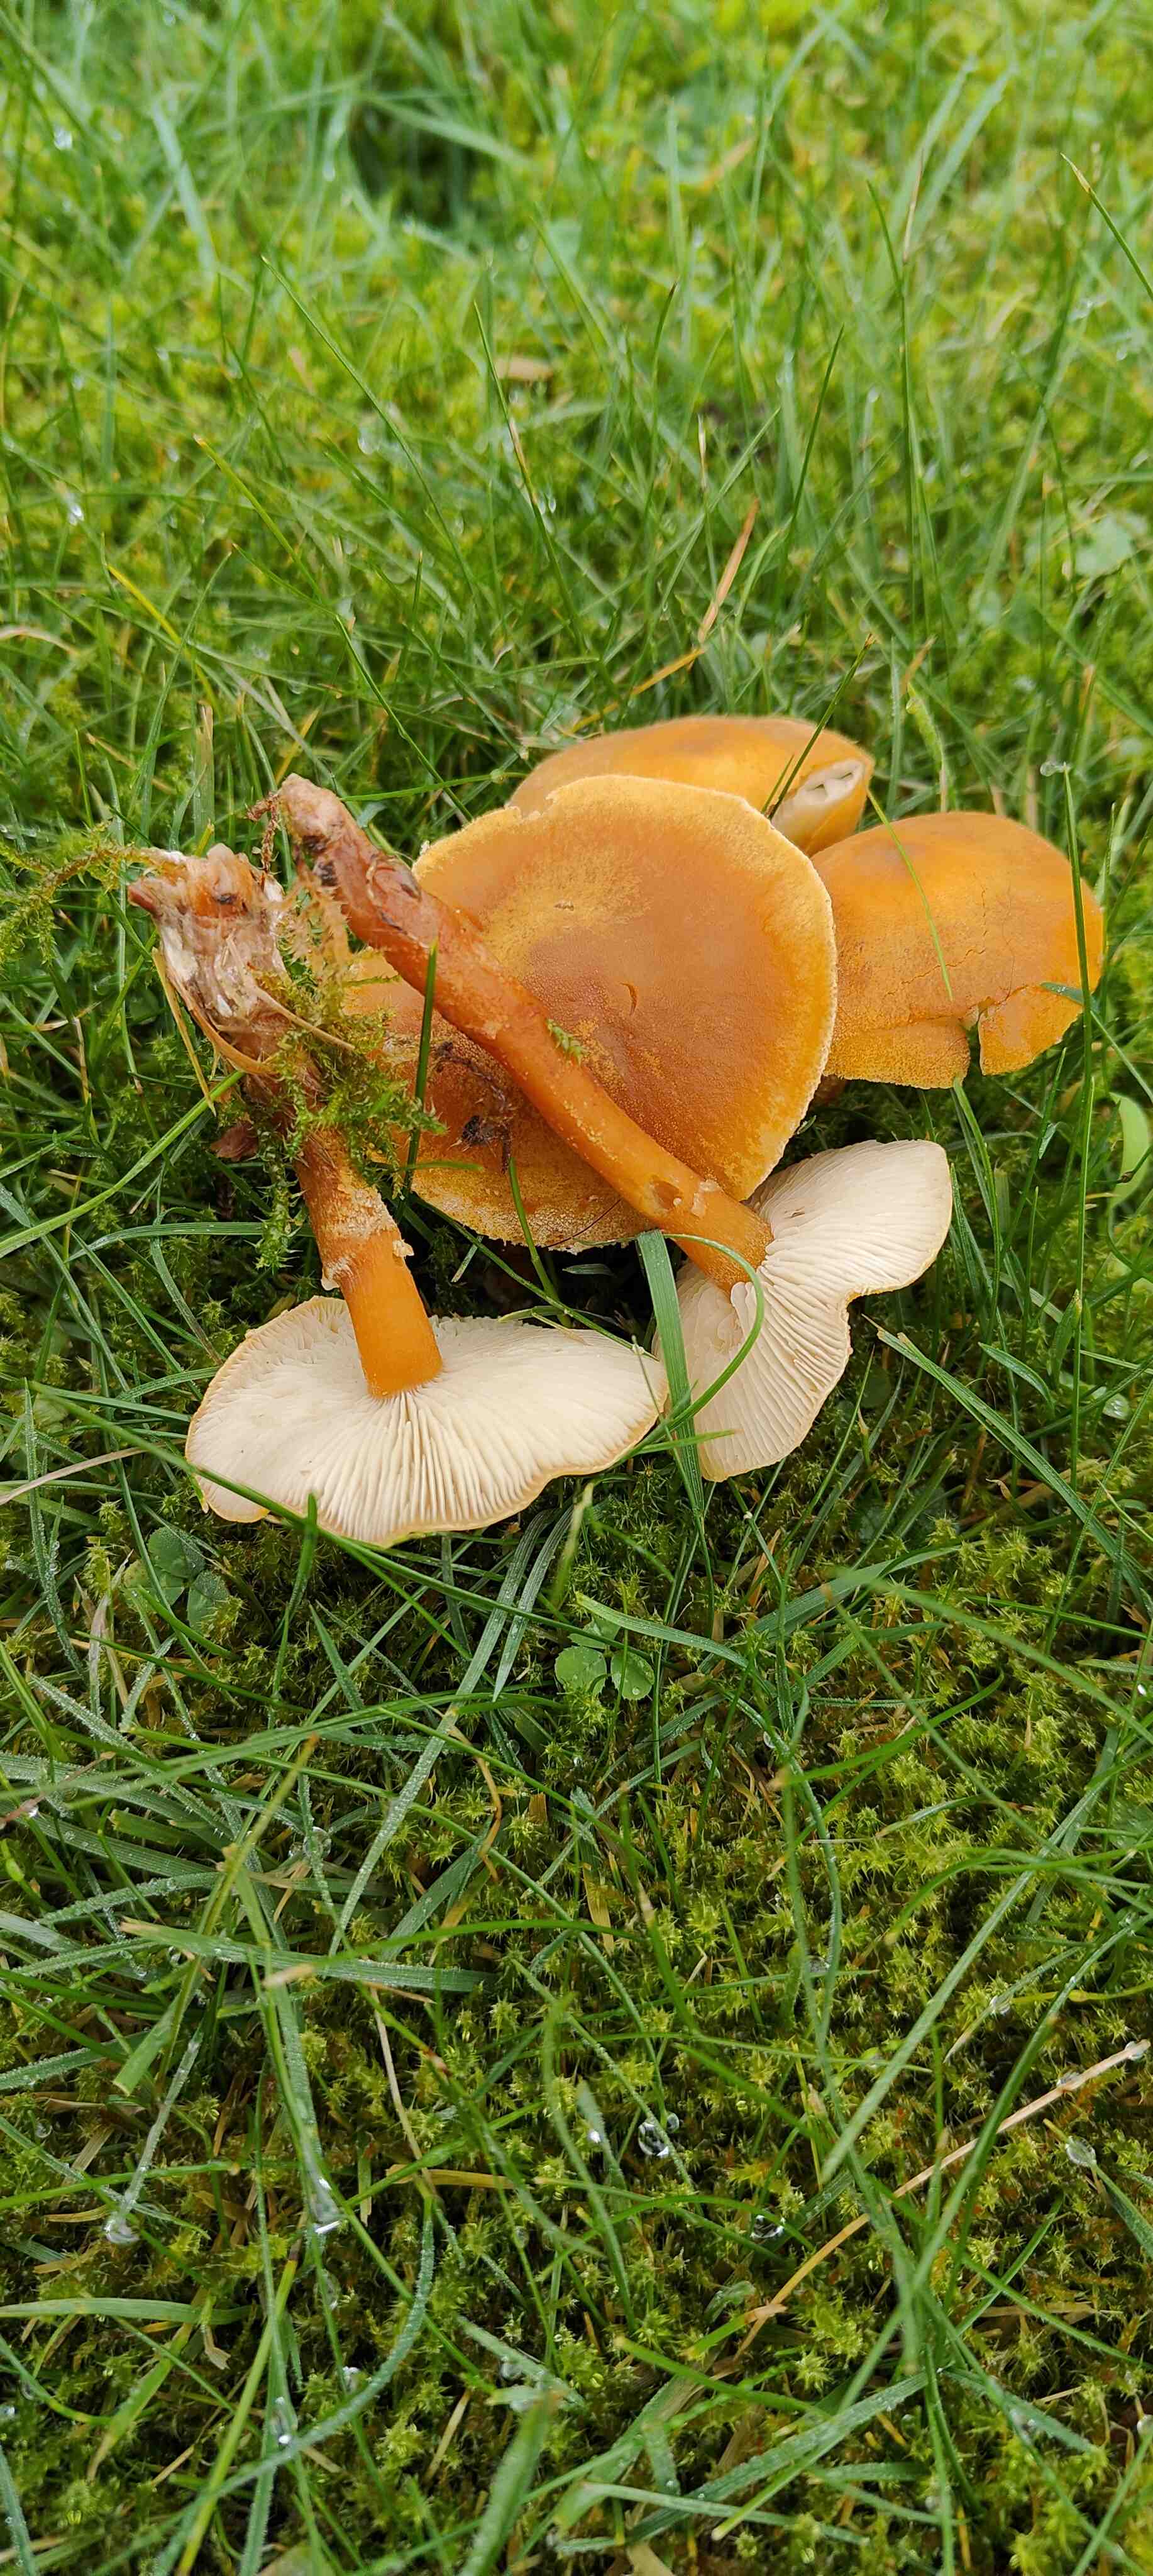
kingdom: Fungi
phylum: Basidiomycota
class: Agaricomycetes
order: Agaricales
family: Tricholomataceae
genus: Cystoderma
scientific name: Cystoderma amianthinum
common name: okkergul grynhat
